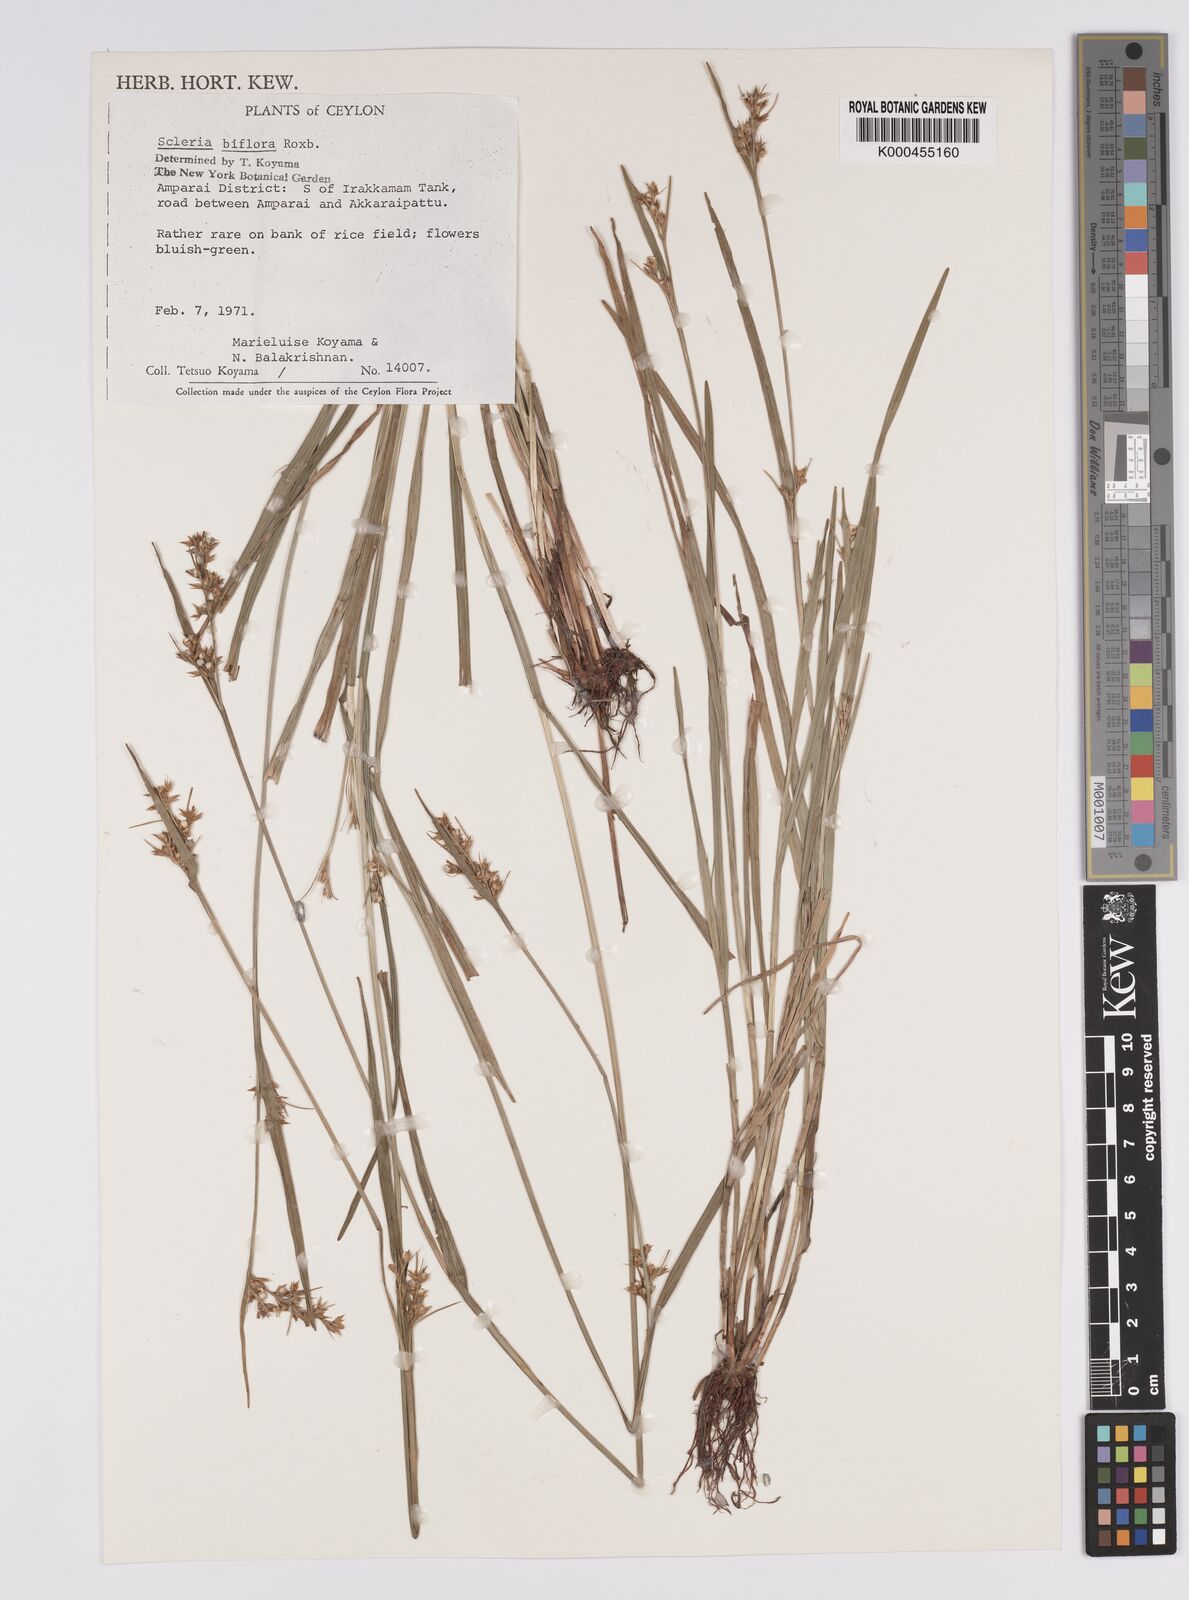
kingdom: Plantae
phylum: Tracheophyta
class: Liliopsida
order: Poales
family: Cyperaceae
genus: Scleria
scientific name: Scleria biflora
